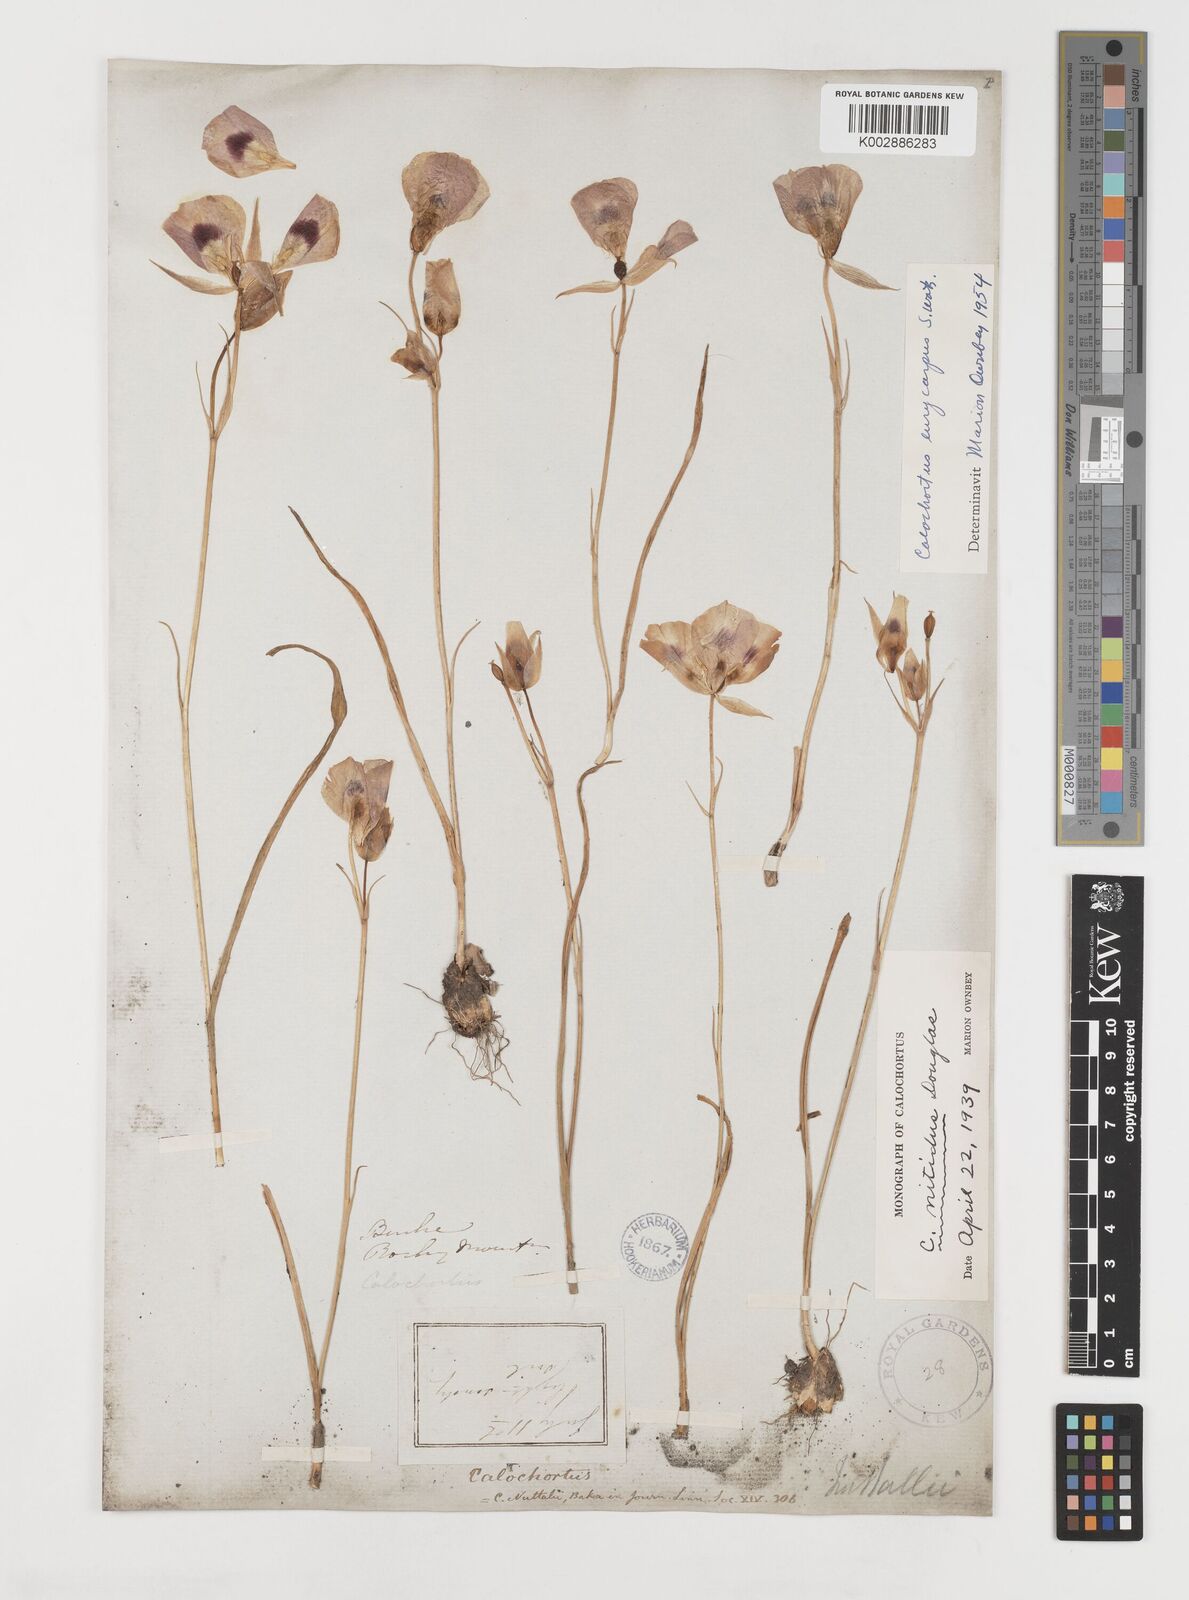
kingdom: Plantae
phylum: Tracheophyta
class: Liliopsida
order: Liliales
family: Liliaceae
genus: Calochortus
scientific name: Calochortus eurycarpus
